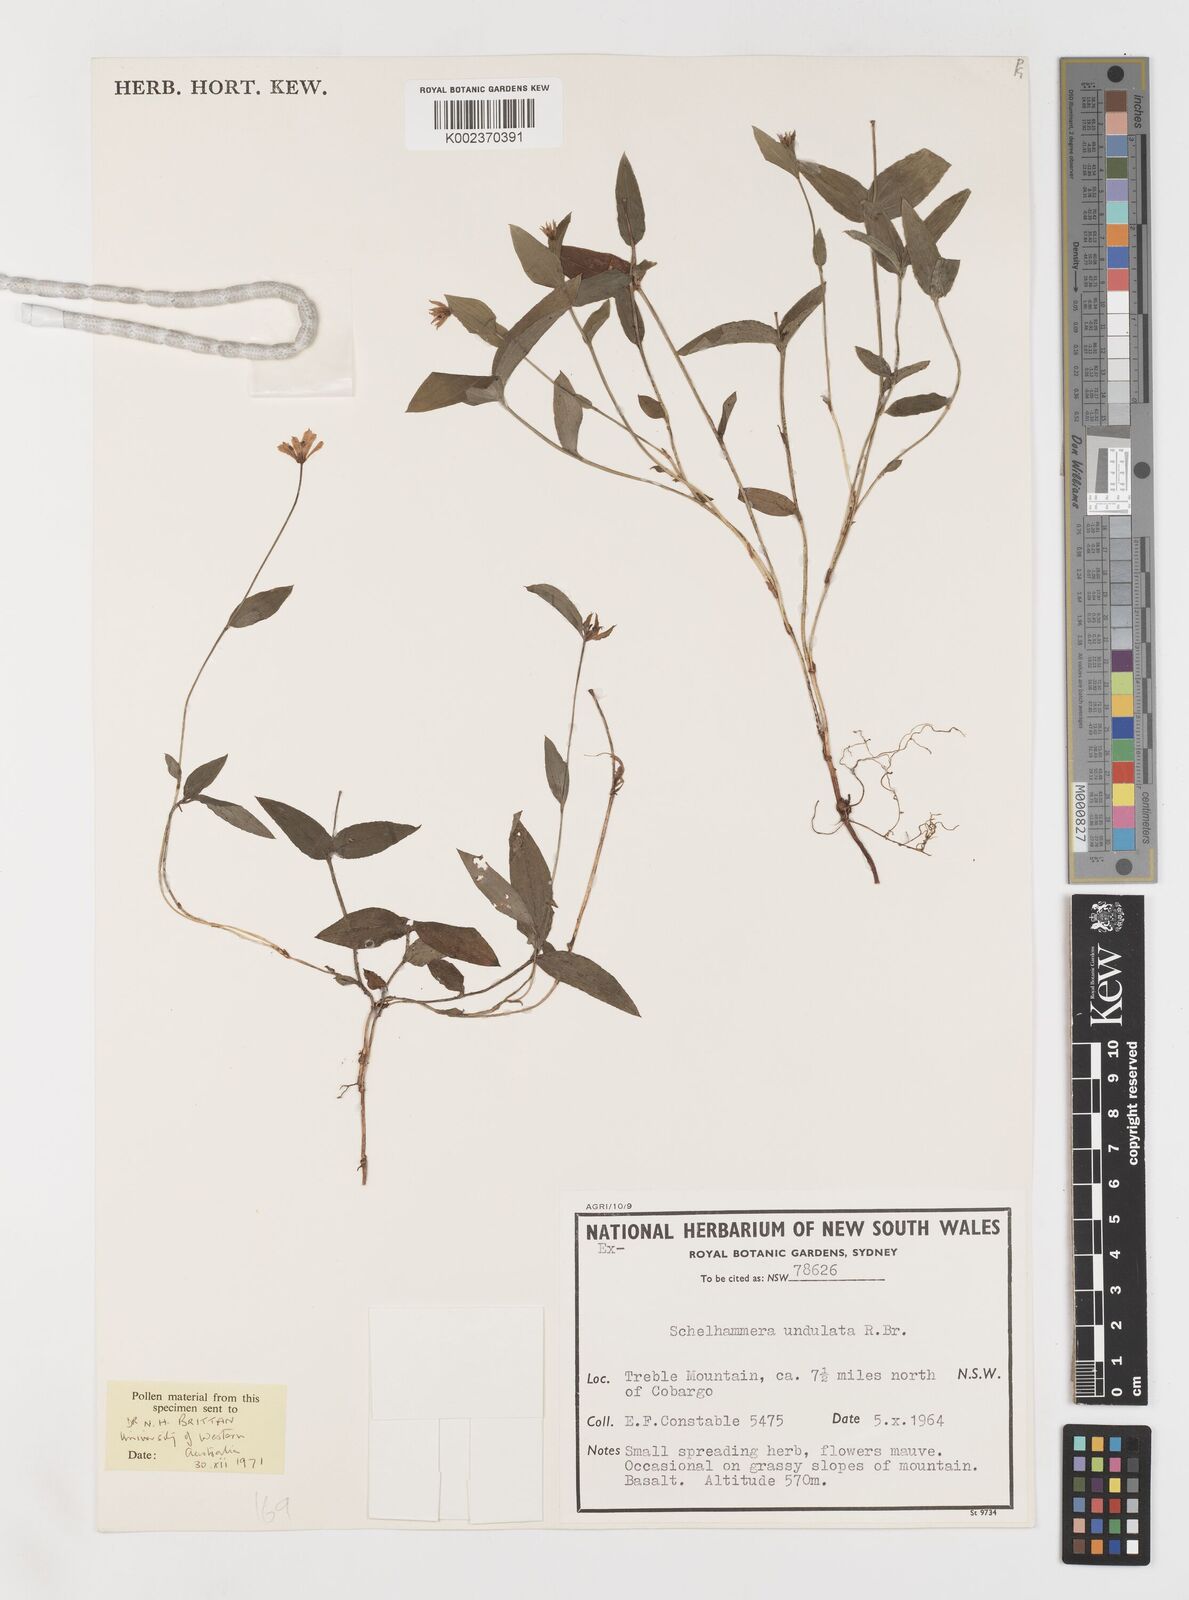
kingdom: Plantae
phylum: Tracheophyta
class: Liliopsida
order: Liliales
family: Colchicaceae
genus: Schelhammera
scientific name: Schelhammera undulata
